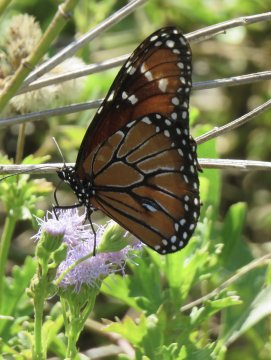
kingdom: Animalia
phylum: Arthropoda
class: Insecta
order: Lepidoptera
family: Nymphalidae
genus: Danaus
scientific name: Danaus eresimus
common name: Soldier
